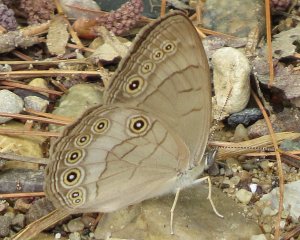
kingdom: Animalia
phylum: Arthropoda
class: Insecta
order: Lepidoptera
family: Nymphalidae
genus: Lethe
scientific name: Lethe eurydice
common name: Appalachian Eyed Brown
